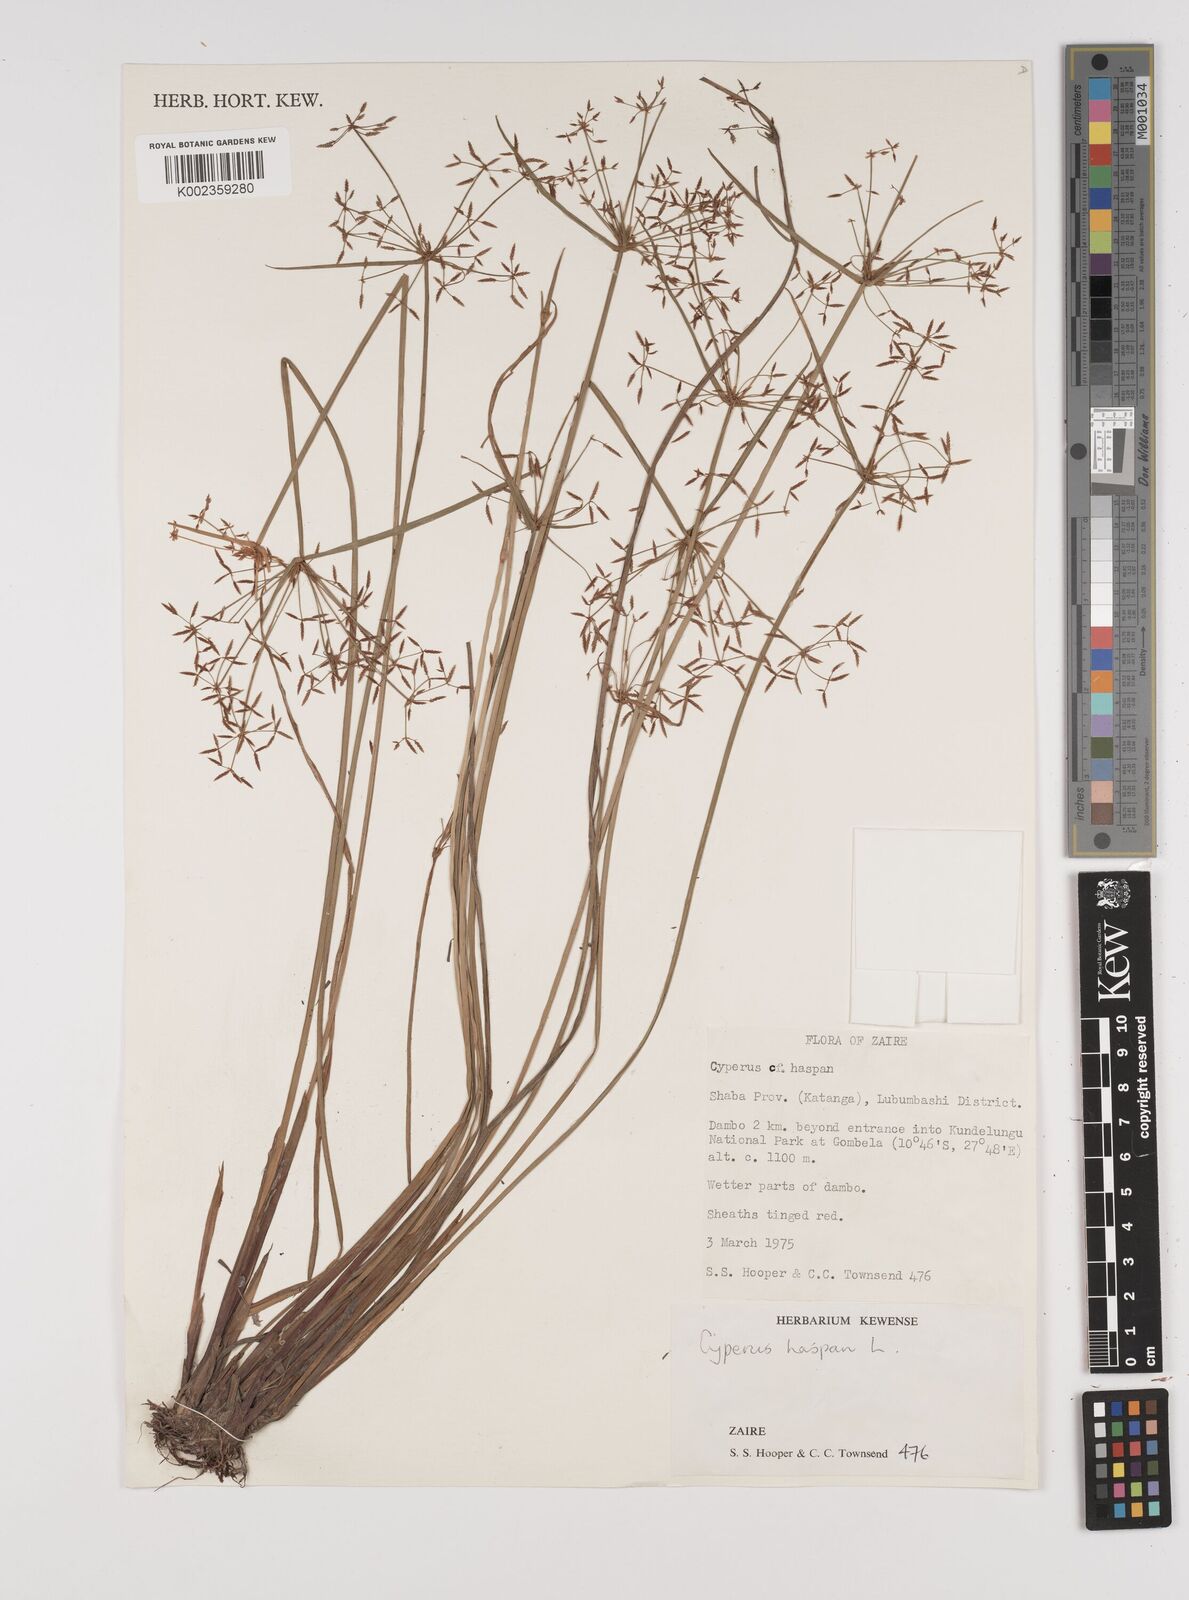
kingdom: Plantae
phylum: Tracheophyta
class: Liliopsida
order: Poales
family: Cyperaceae
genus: Cyperus
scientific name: Cyperus haspan
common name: Haspan flatsedge
